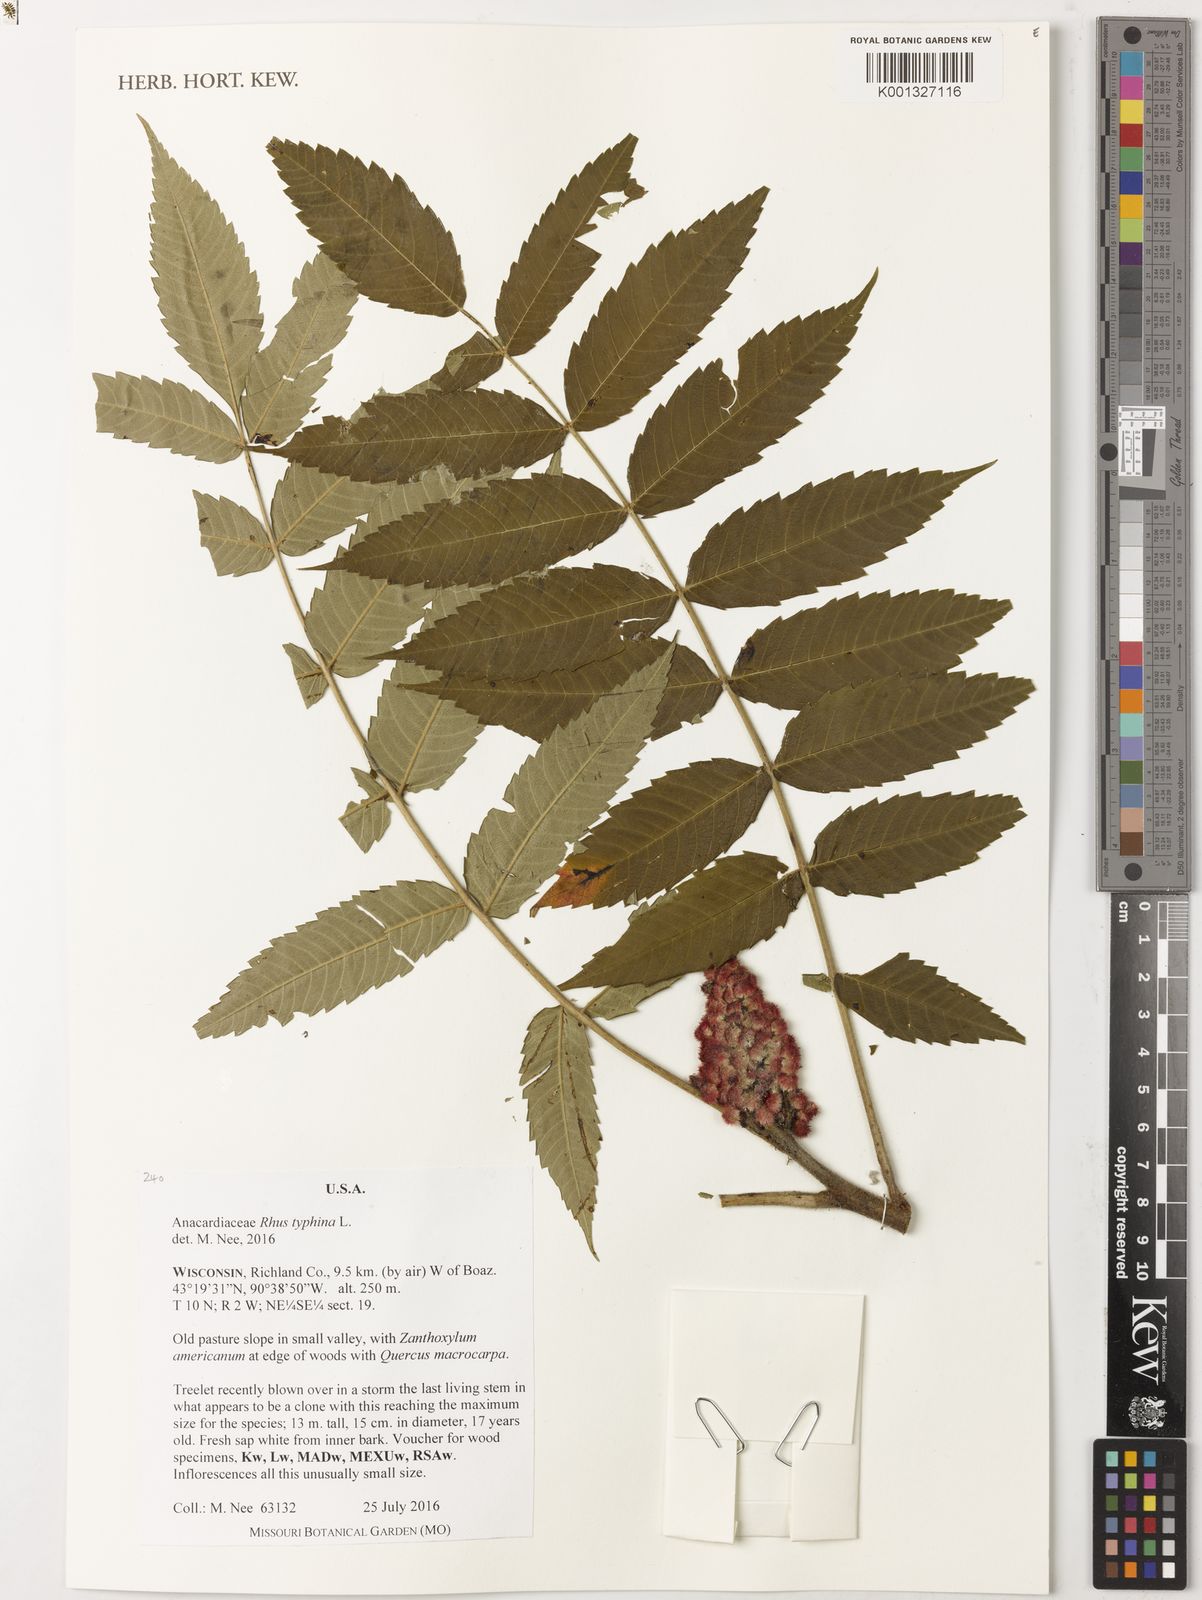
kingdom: Plantae
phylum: Tracheophyta
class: Magnoliopsida
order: Sapindales
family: Anacardiaceae
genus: Rhus
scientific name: Rhus typhina
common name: Staghorn sumac
